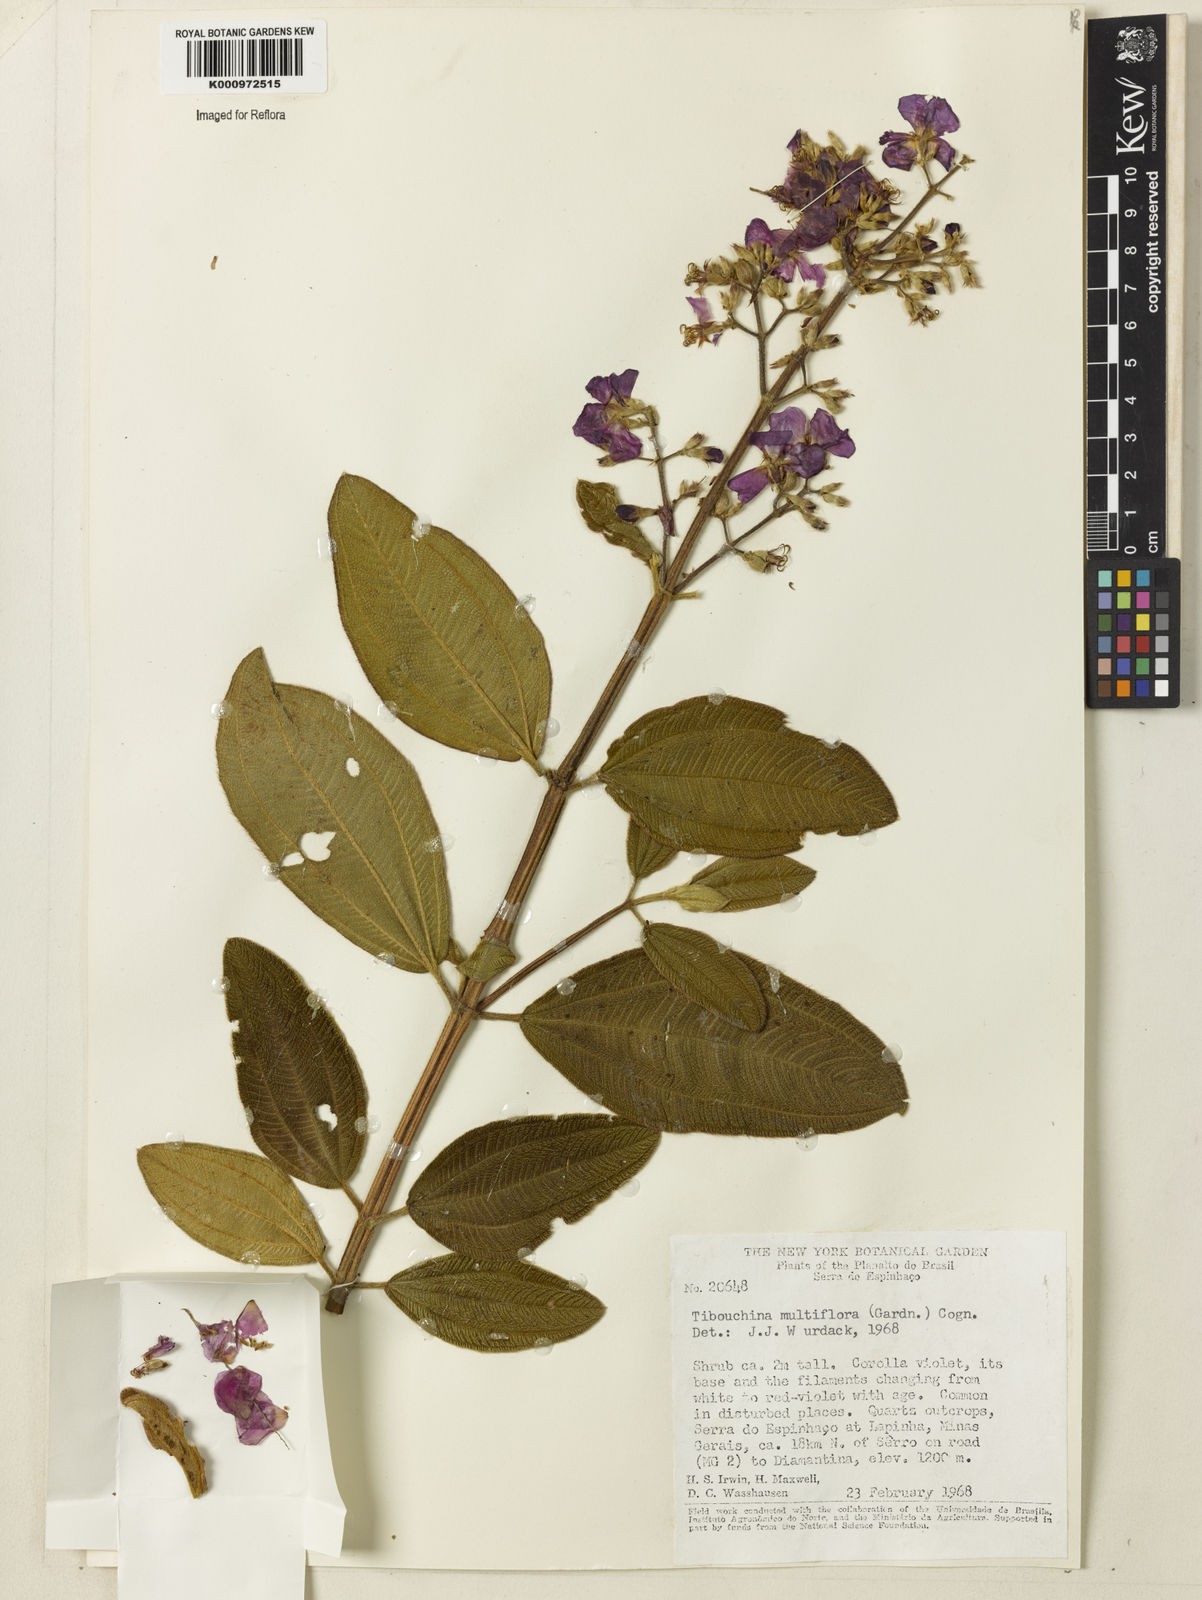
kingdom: Plantae
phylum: Tracheophyta
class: Magnoliopsida
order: Myrtales
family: Melastomataceae
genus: Pleroma
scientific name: Pleroma heteromallum
